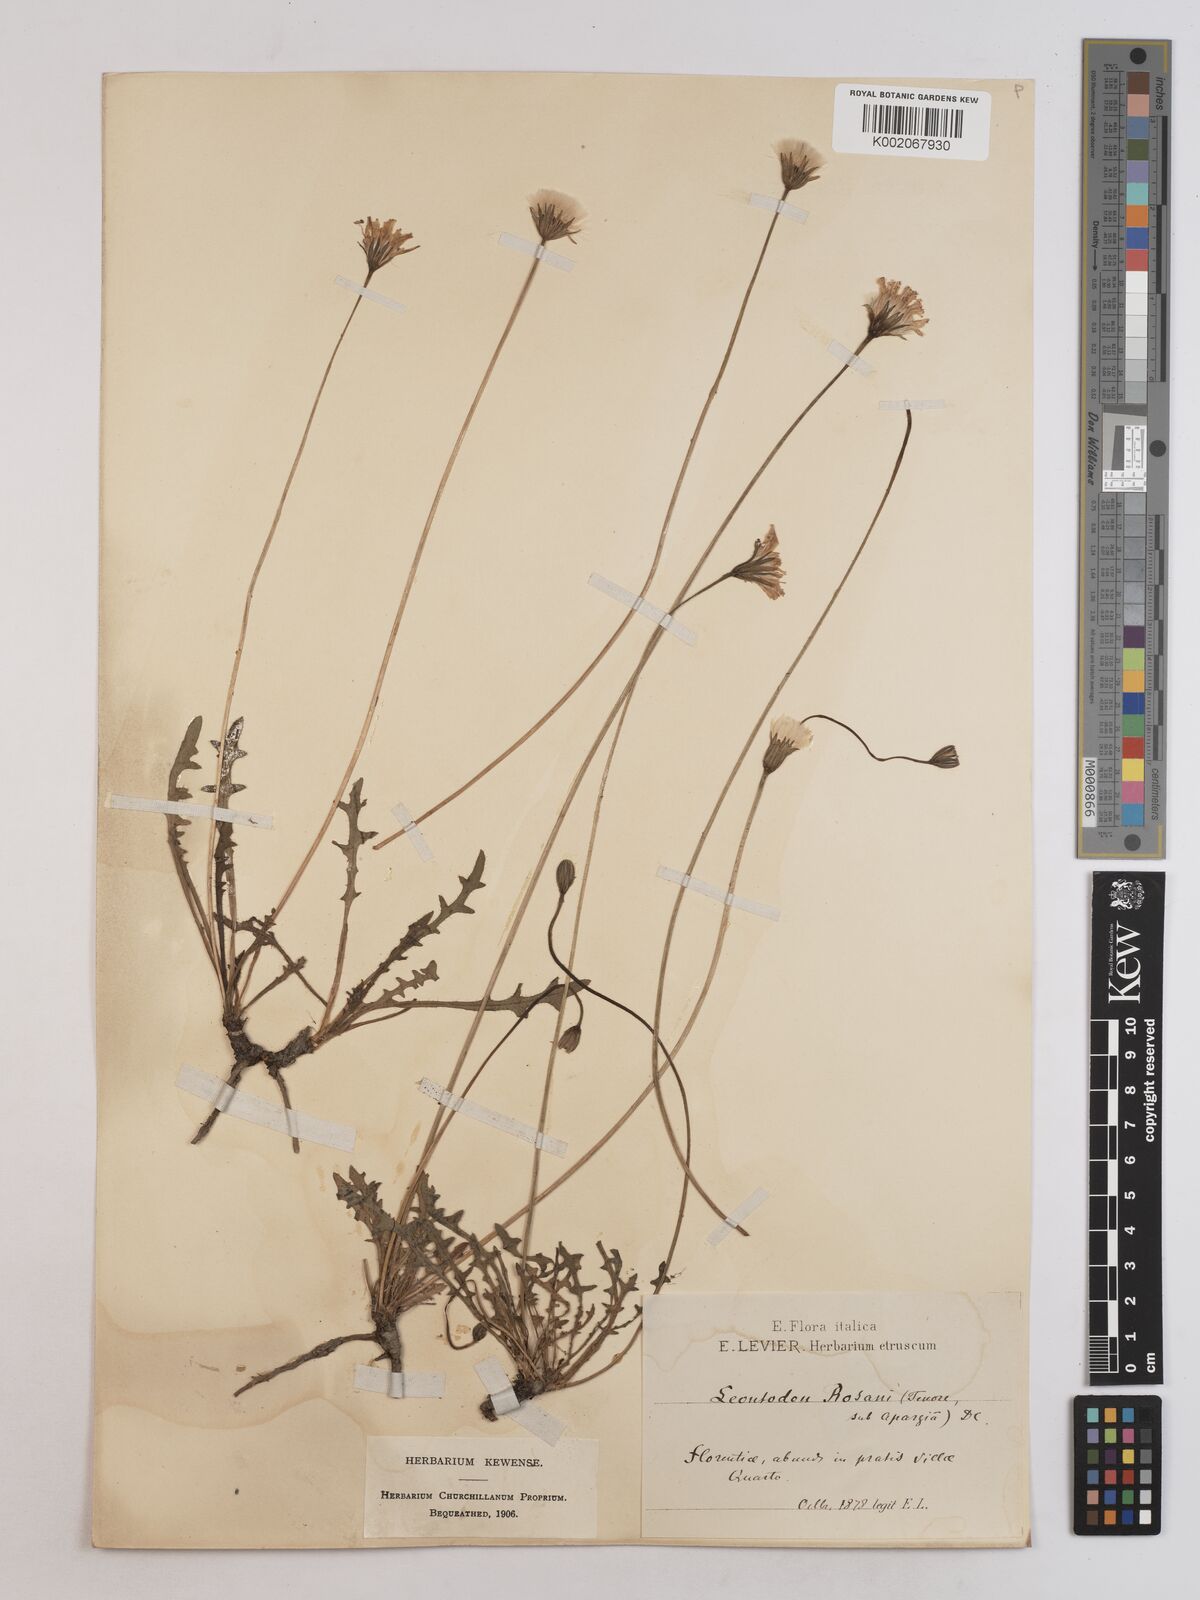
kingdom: Plantae
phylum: Tracheophyta
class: Magnoliopsida
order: Asterales
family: Asteraceae
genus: Leontodon
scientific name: Leontodon rosanoi
